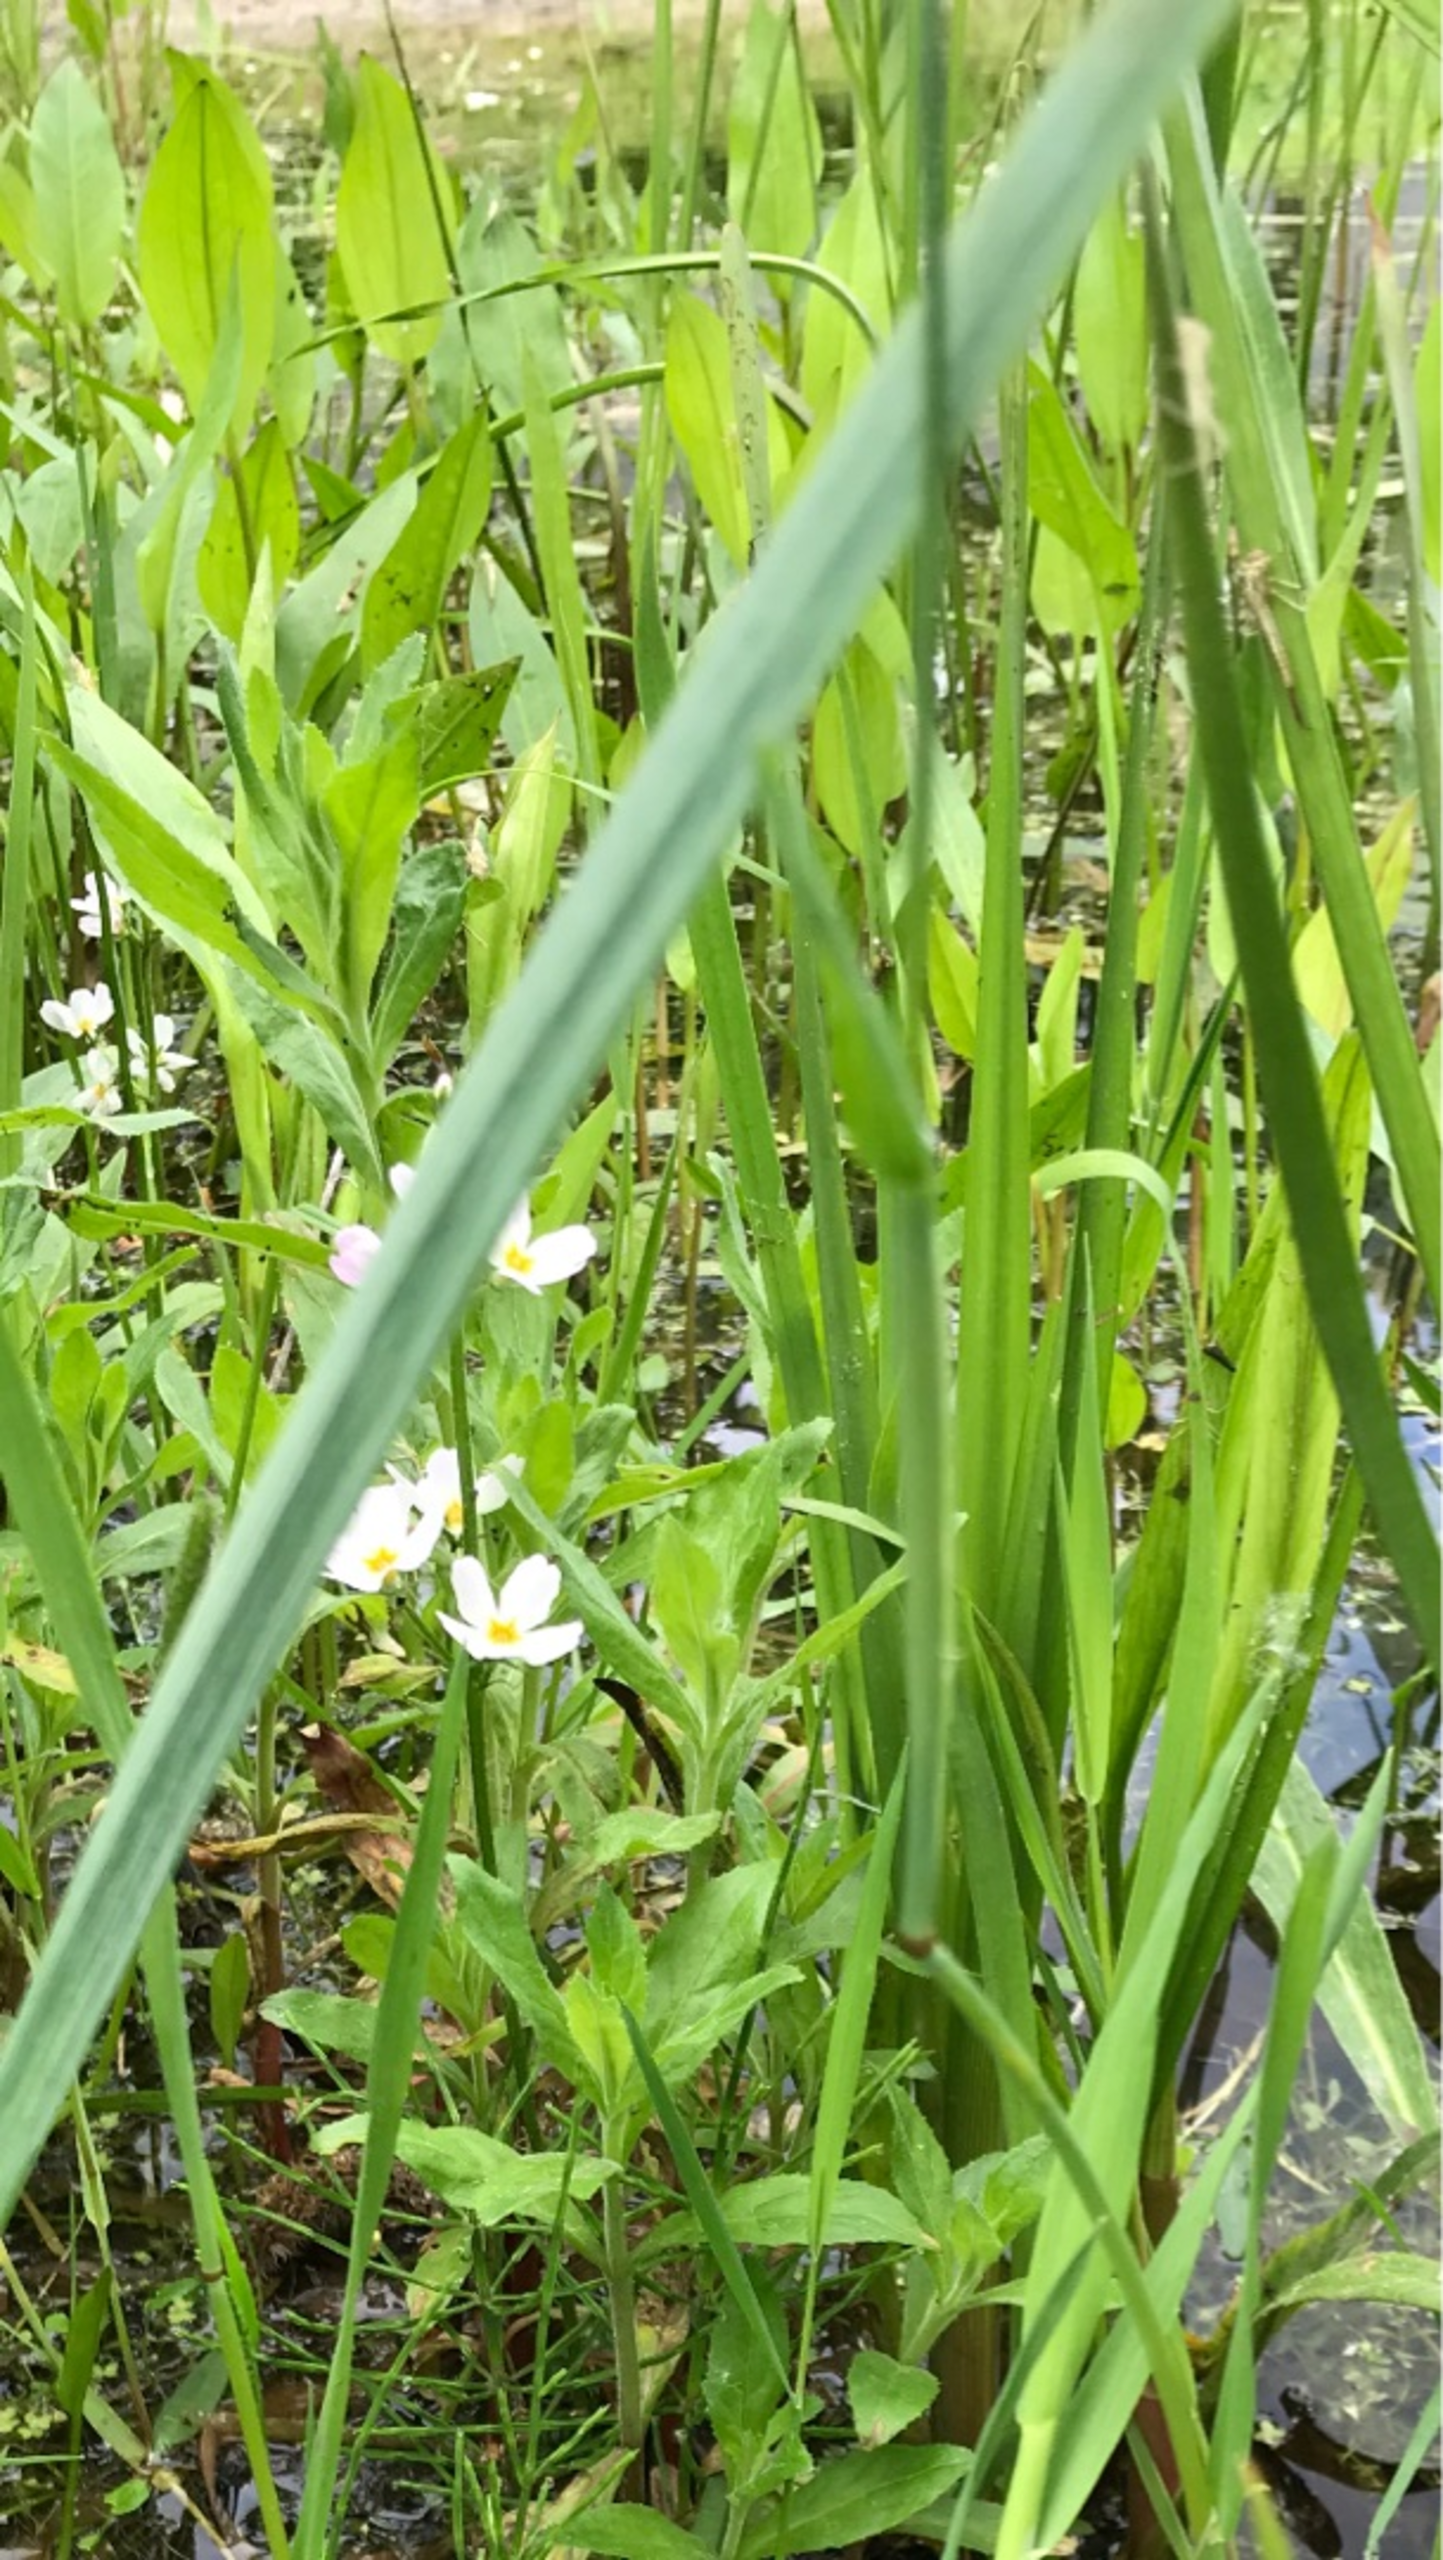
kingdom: Plantae
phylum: Tracheophyta
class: Magnoliopsida
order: Ericales
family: Primulaceae
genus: Hottonia
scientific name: Hottonia palustris
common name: Vandrøllike
